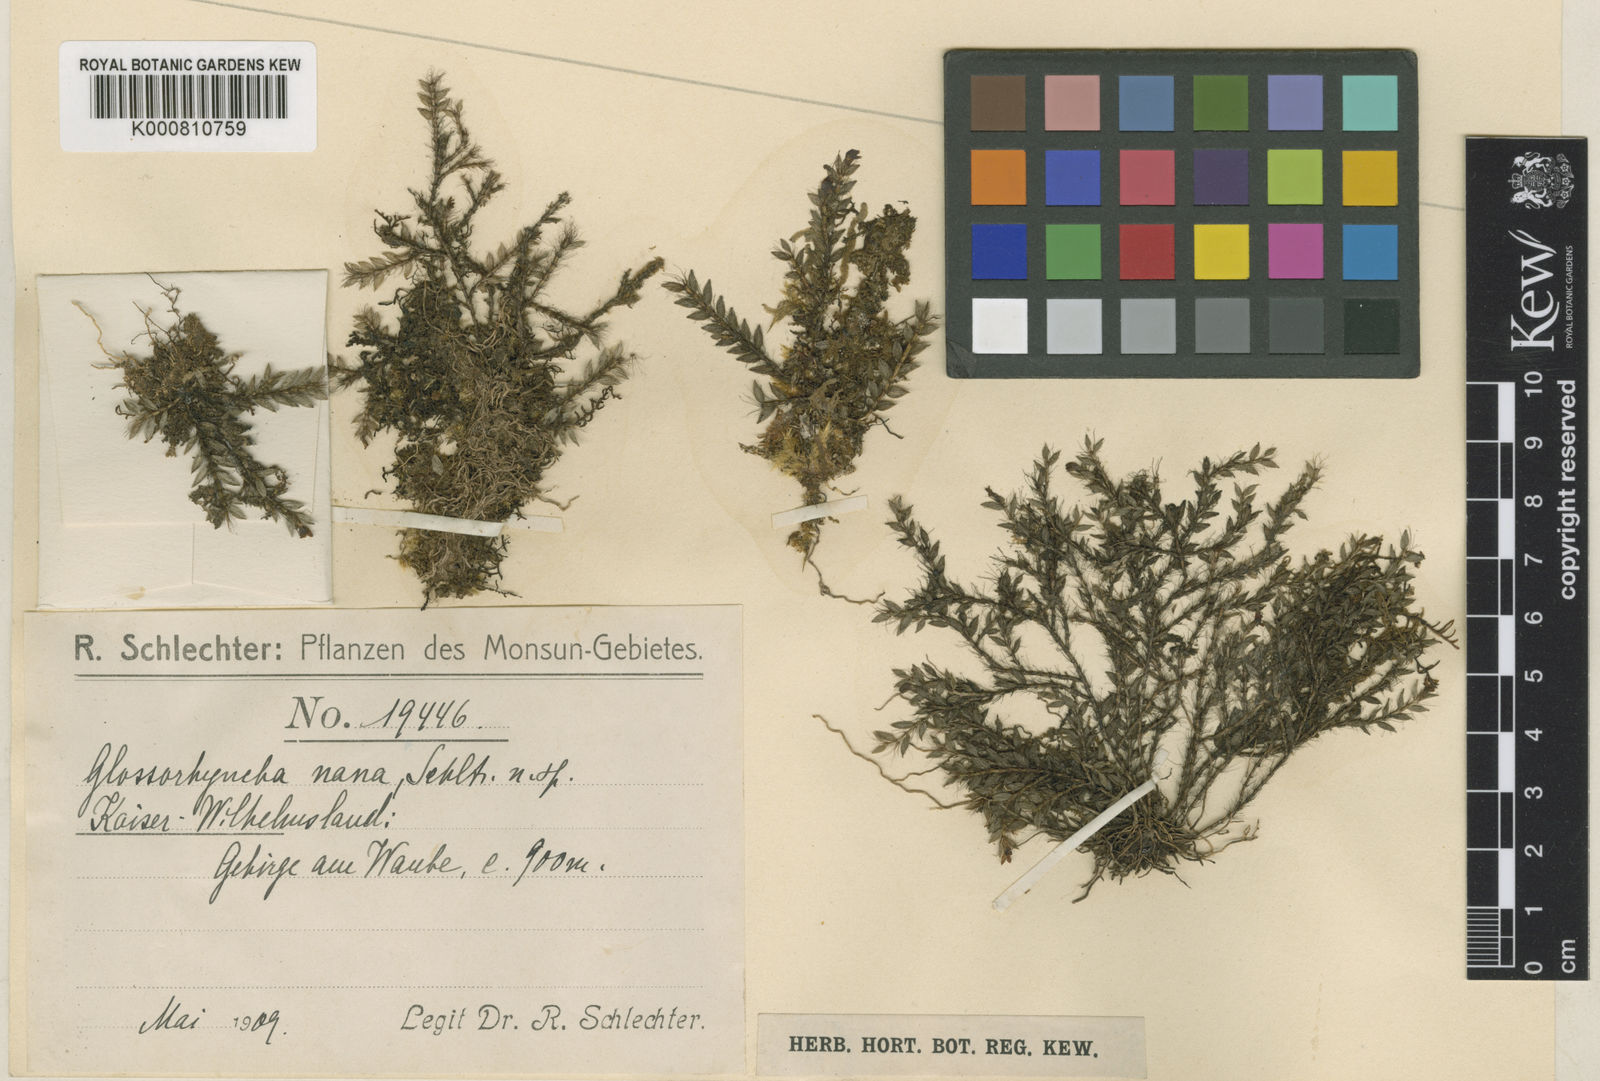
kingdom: Plantae
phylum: Tracheophyta
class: Liliopsida
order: Asparagales
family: Orchidaceae
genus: Glomera
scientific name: Glomera nana
